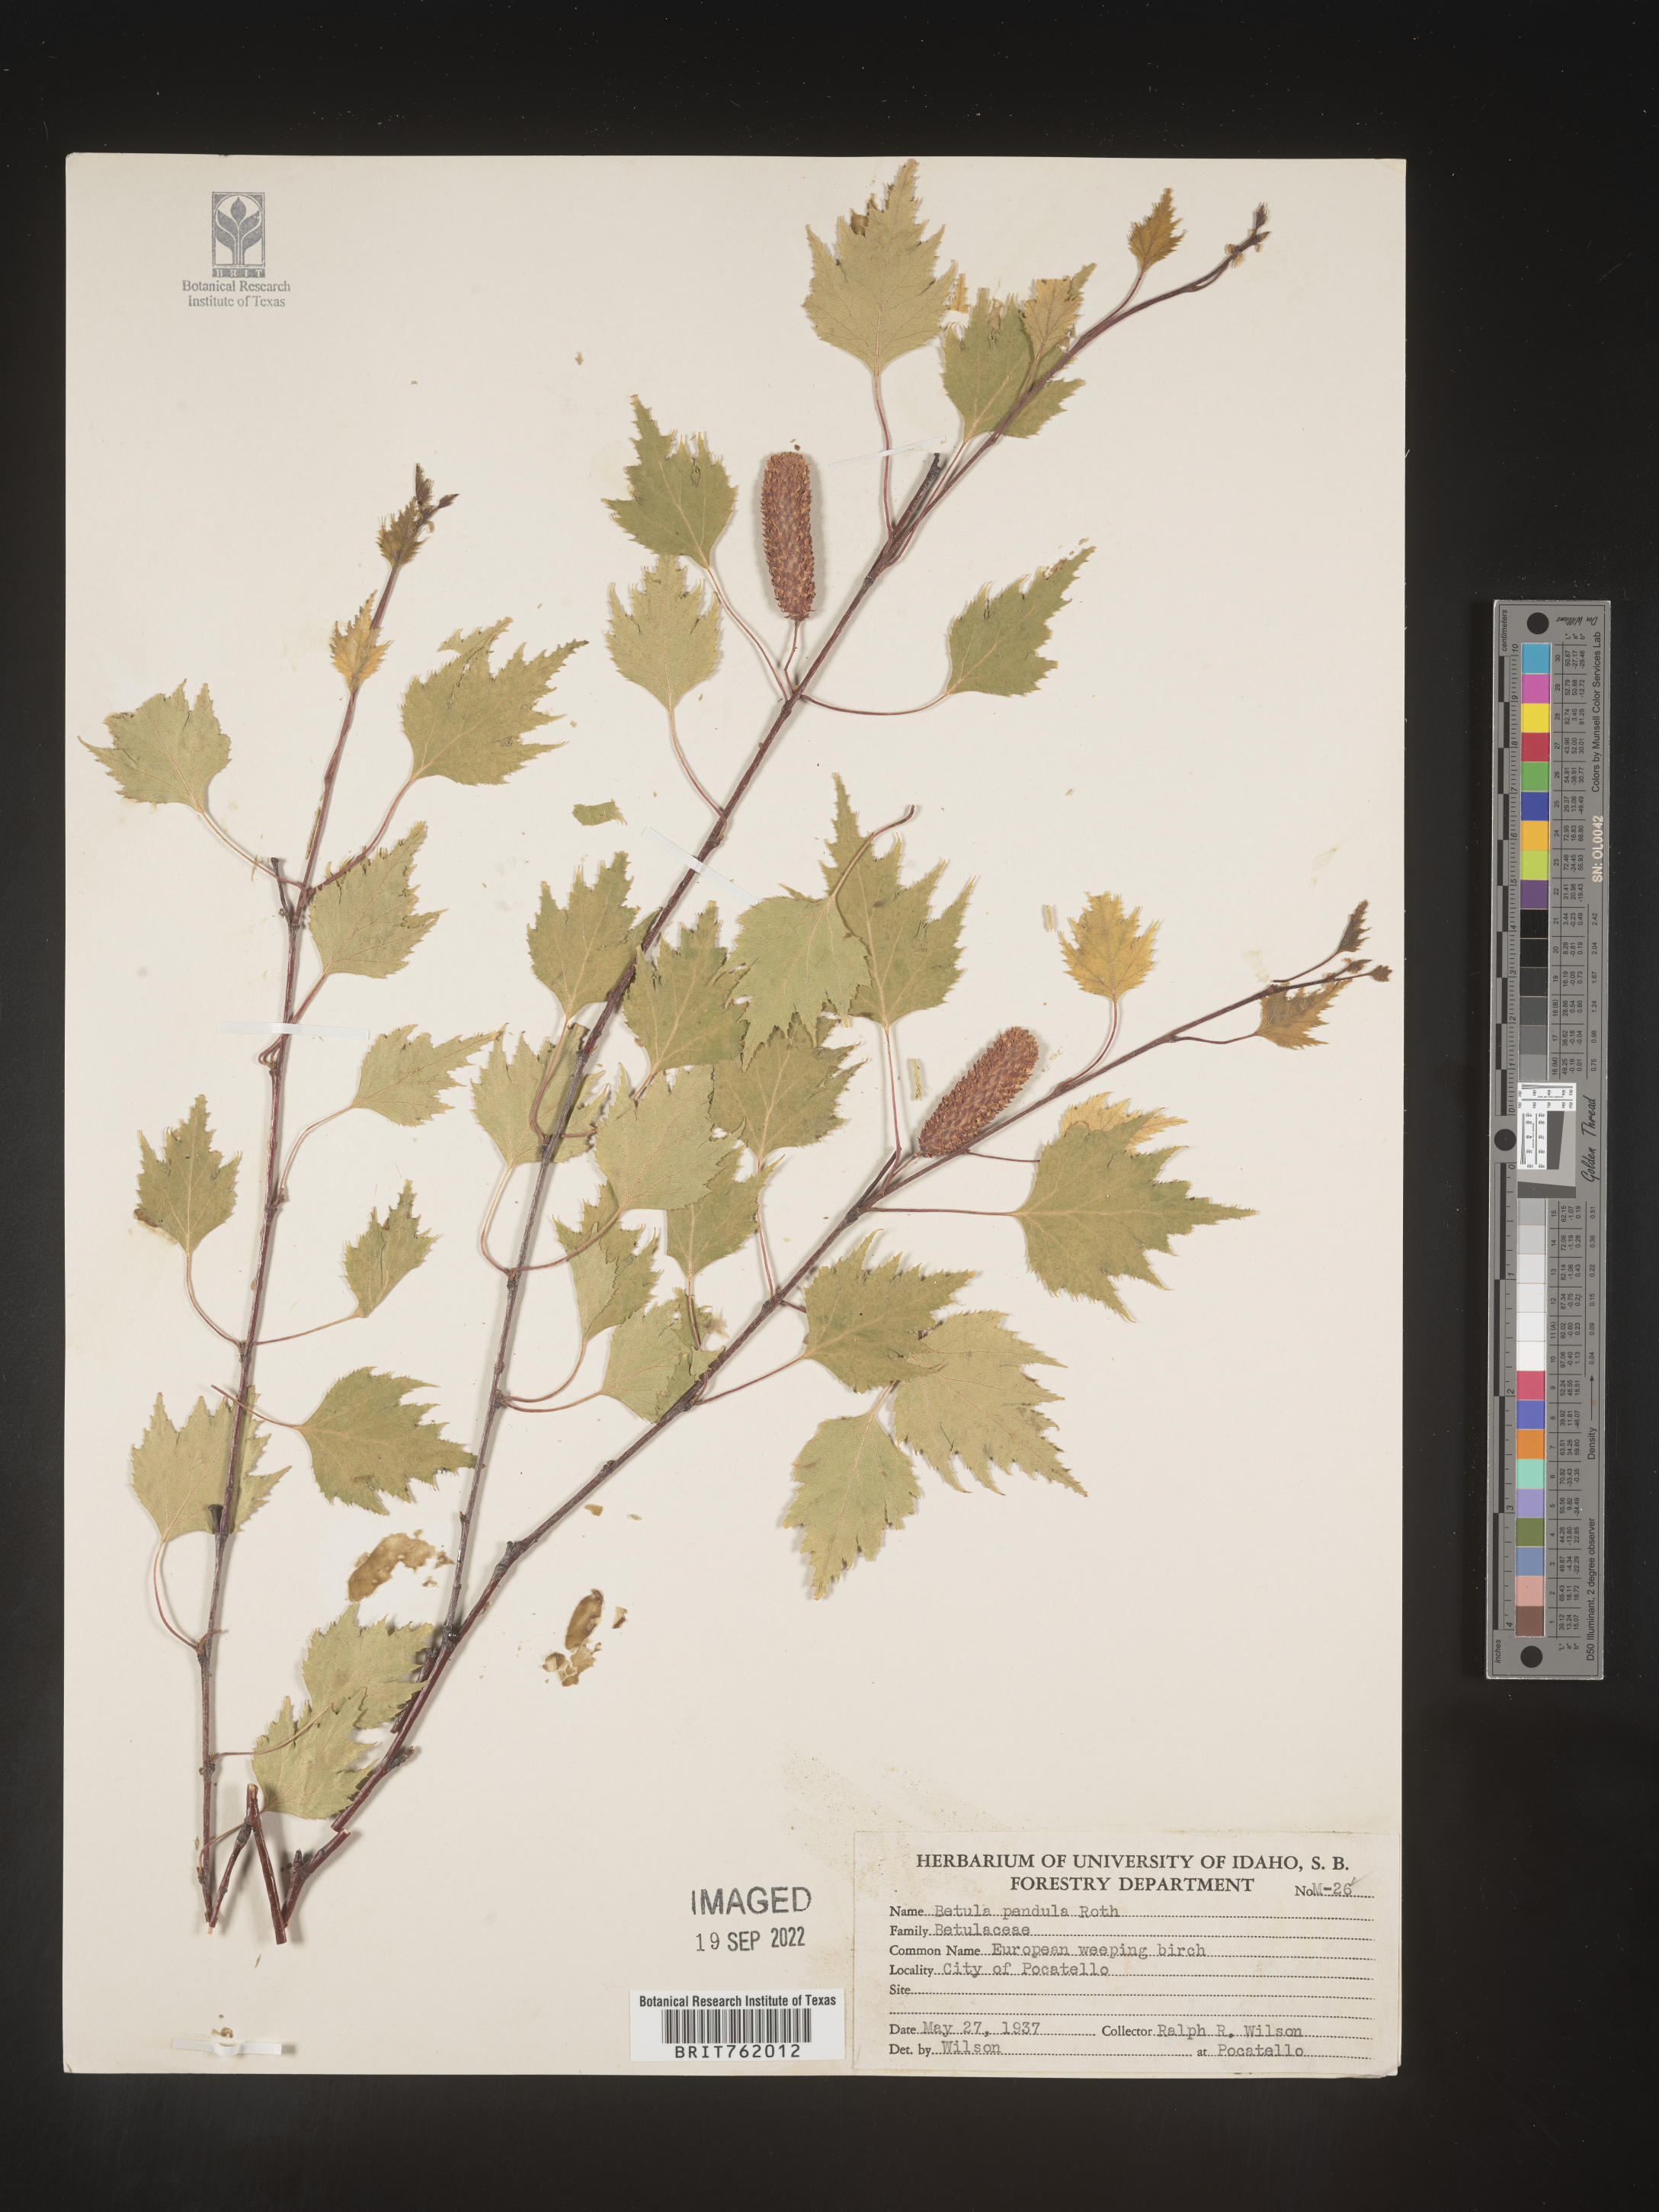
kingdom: Plantae
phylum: Tracheophyta
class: Magnoliopsida
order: Fagales
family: Betulaceae
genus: Betula
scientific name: Betula
